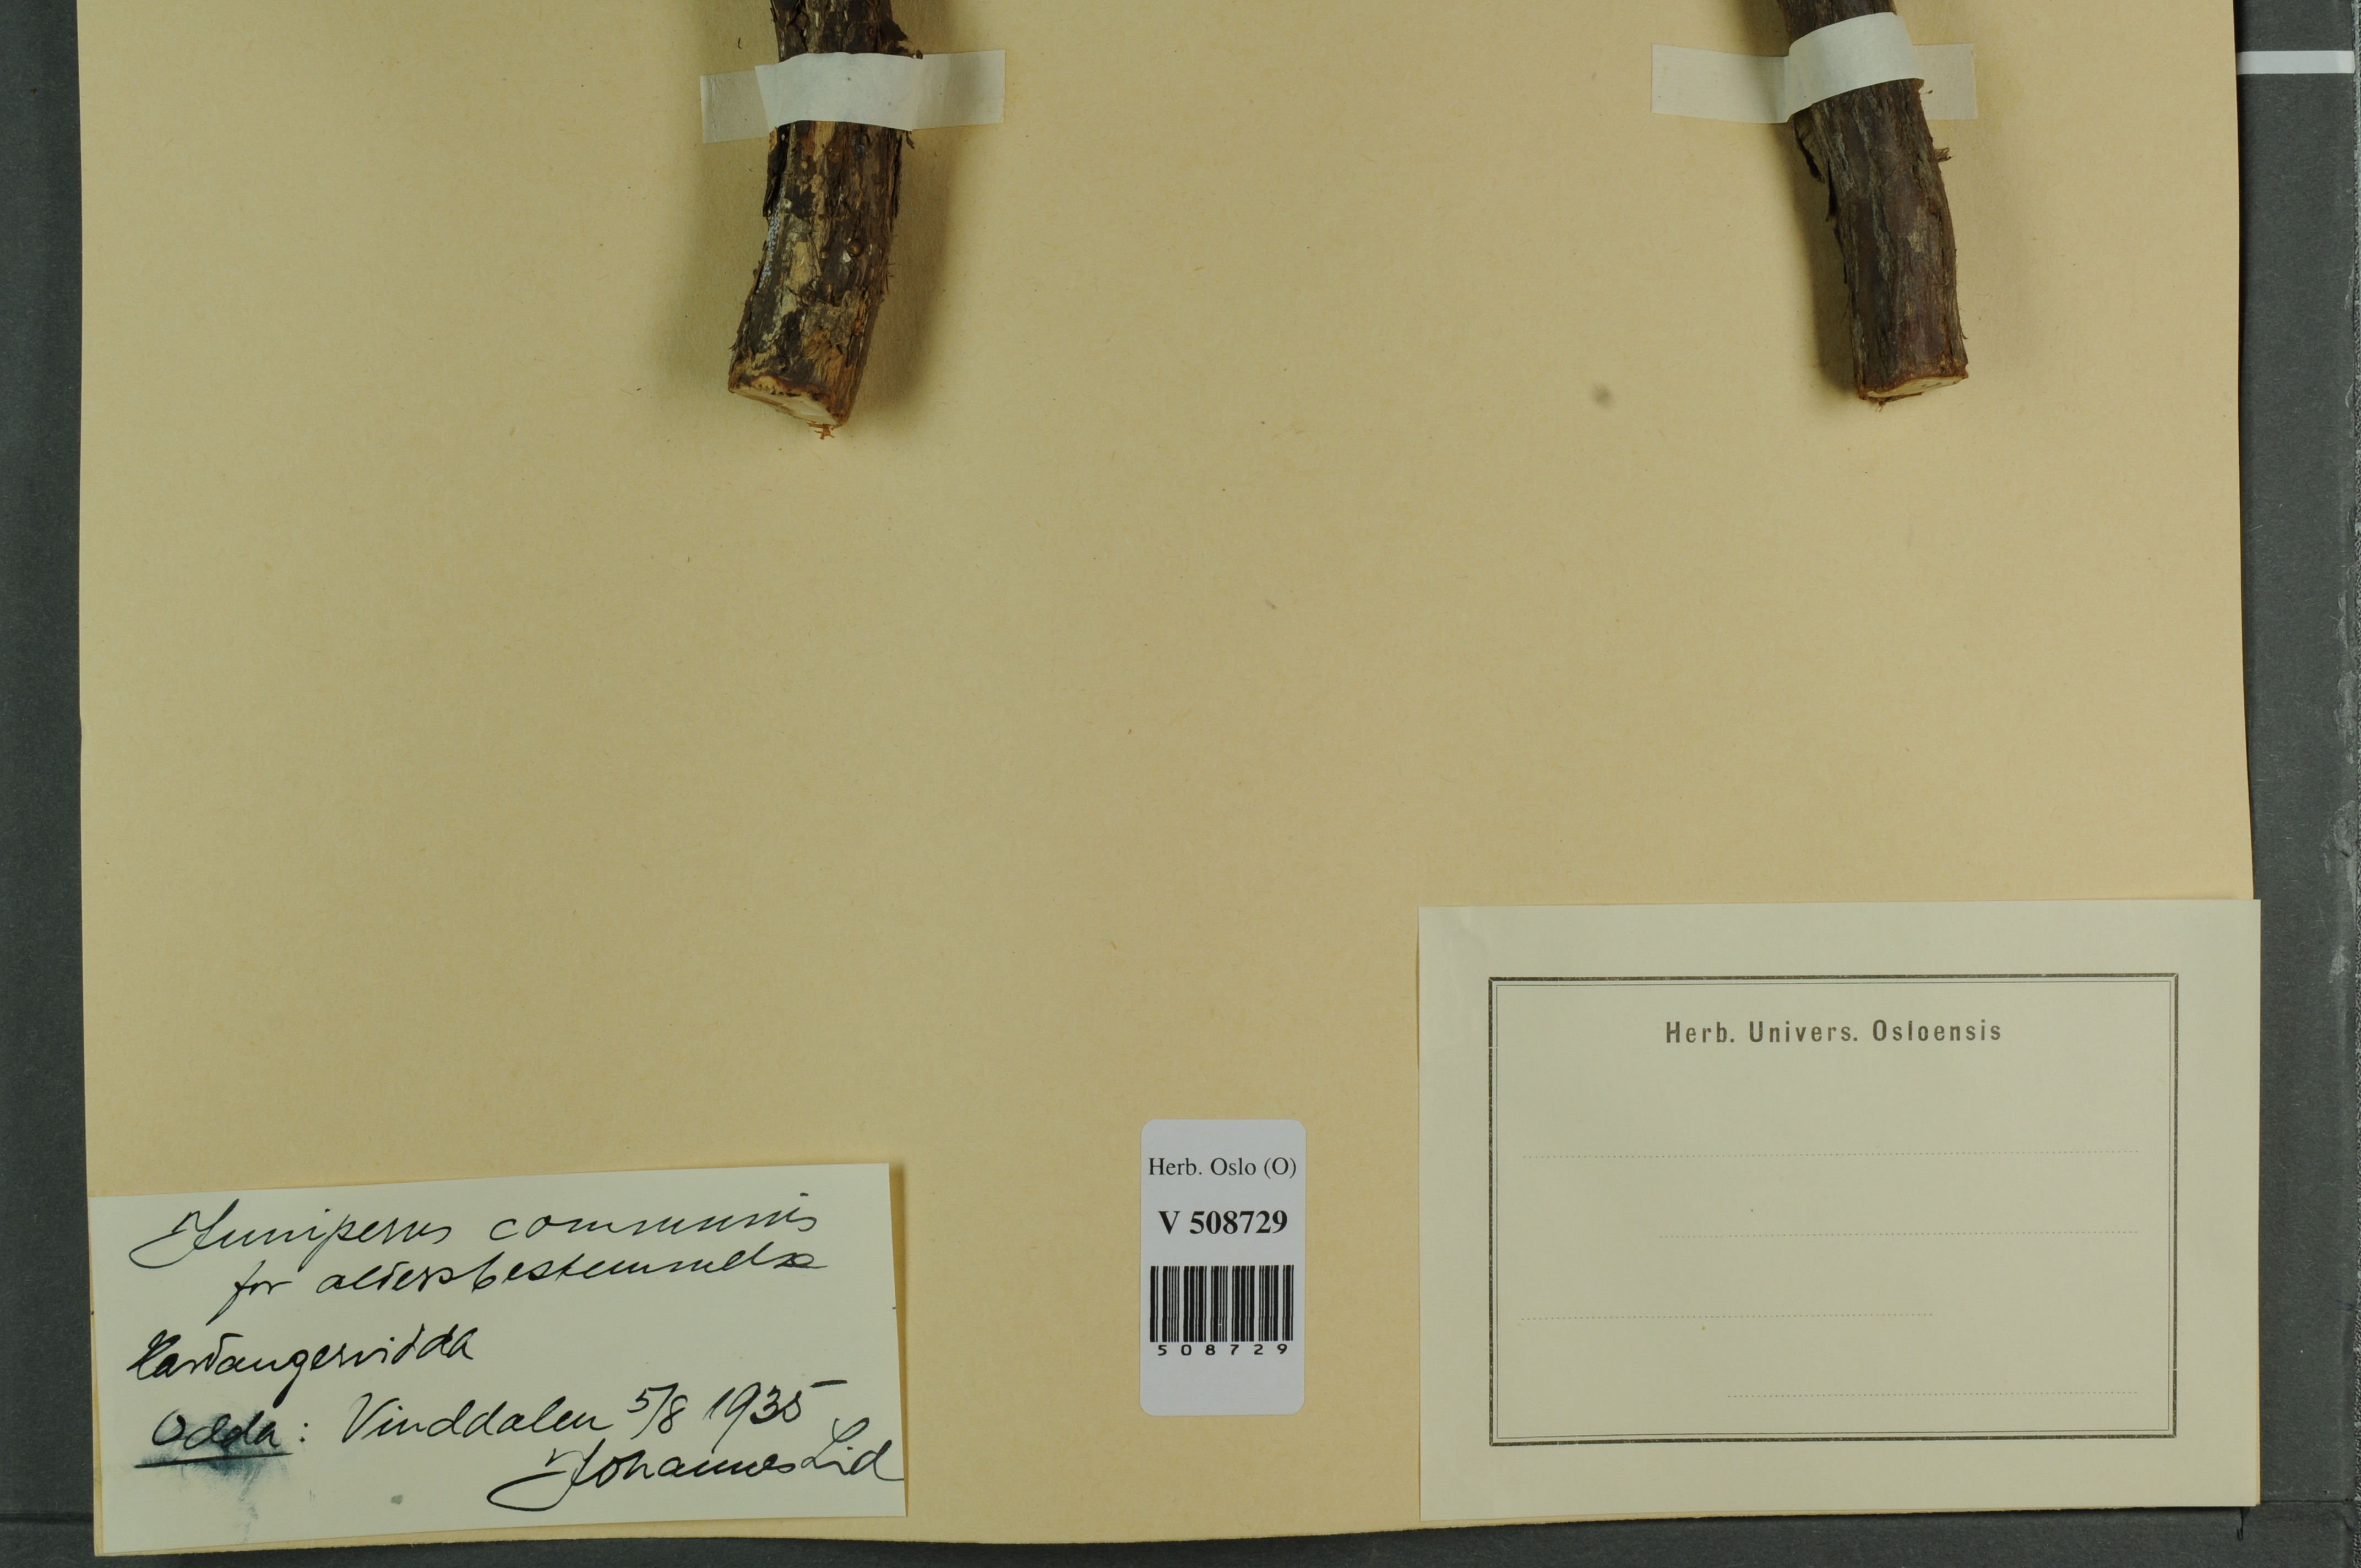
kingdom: Plantae
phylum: Tracheophyta
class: Pinopsida
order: Pinales
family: Cupressaceae
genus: Juniperus
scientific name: Juniperus communis
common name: Common juniper
